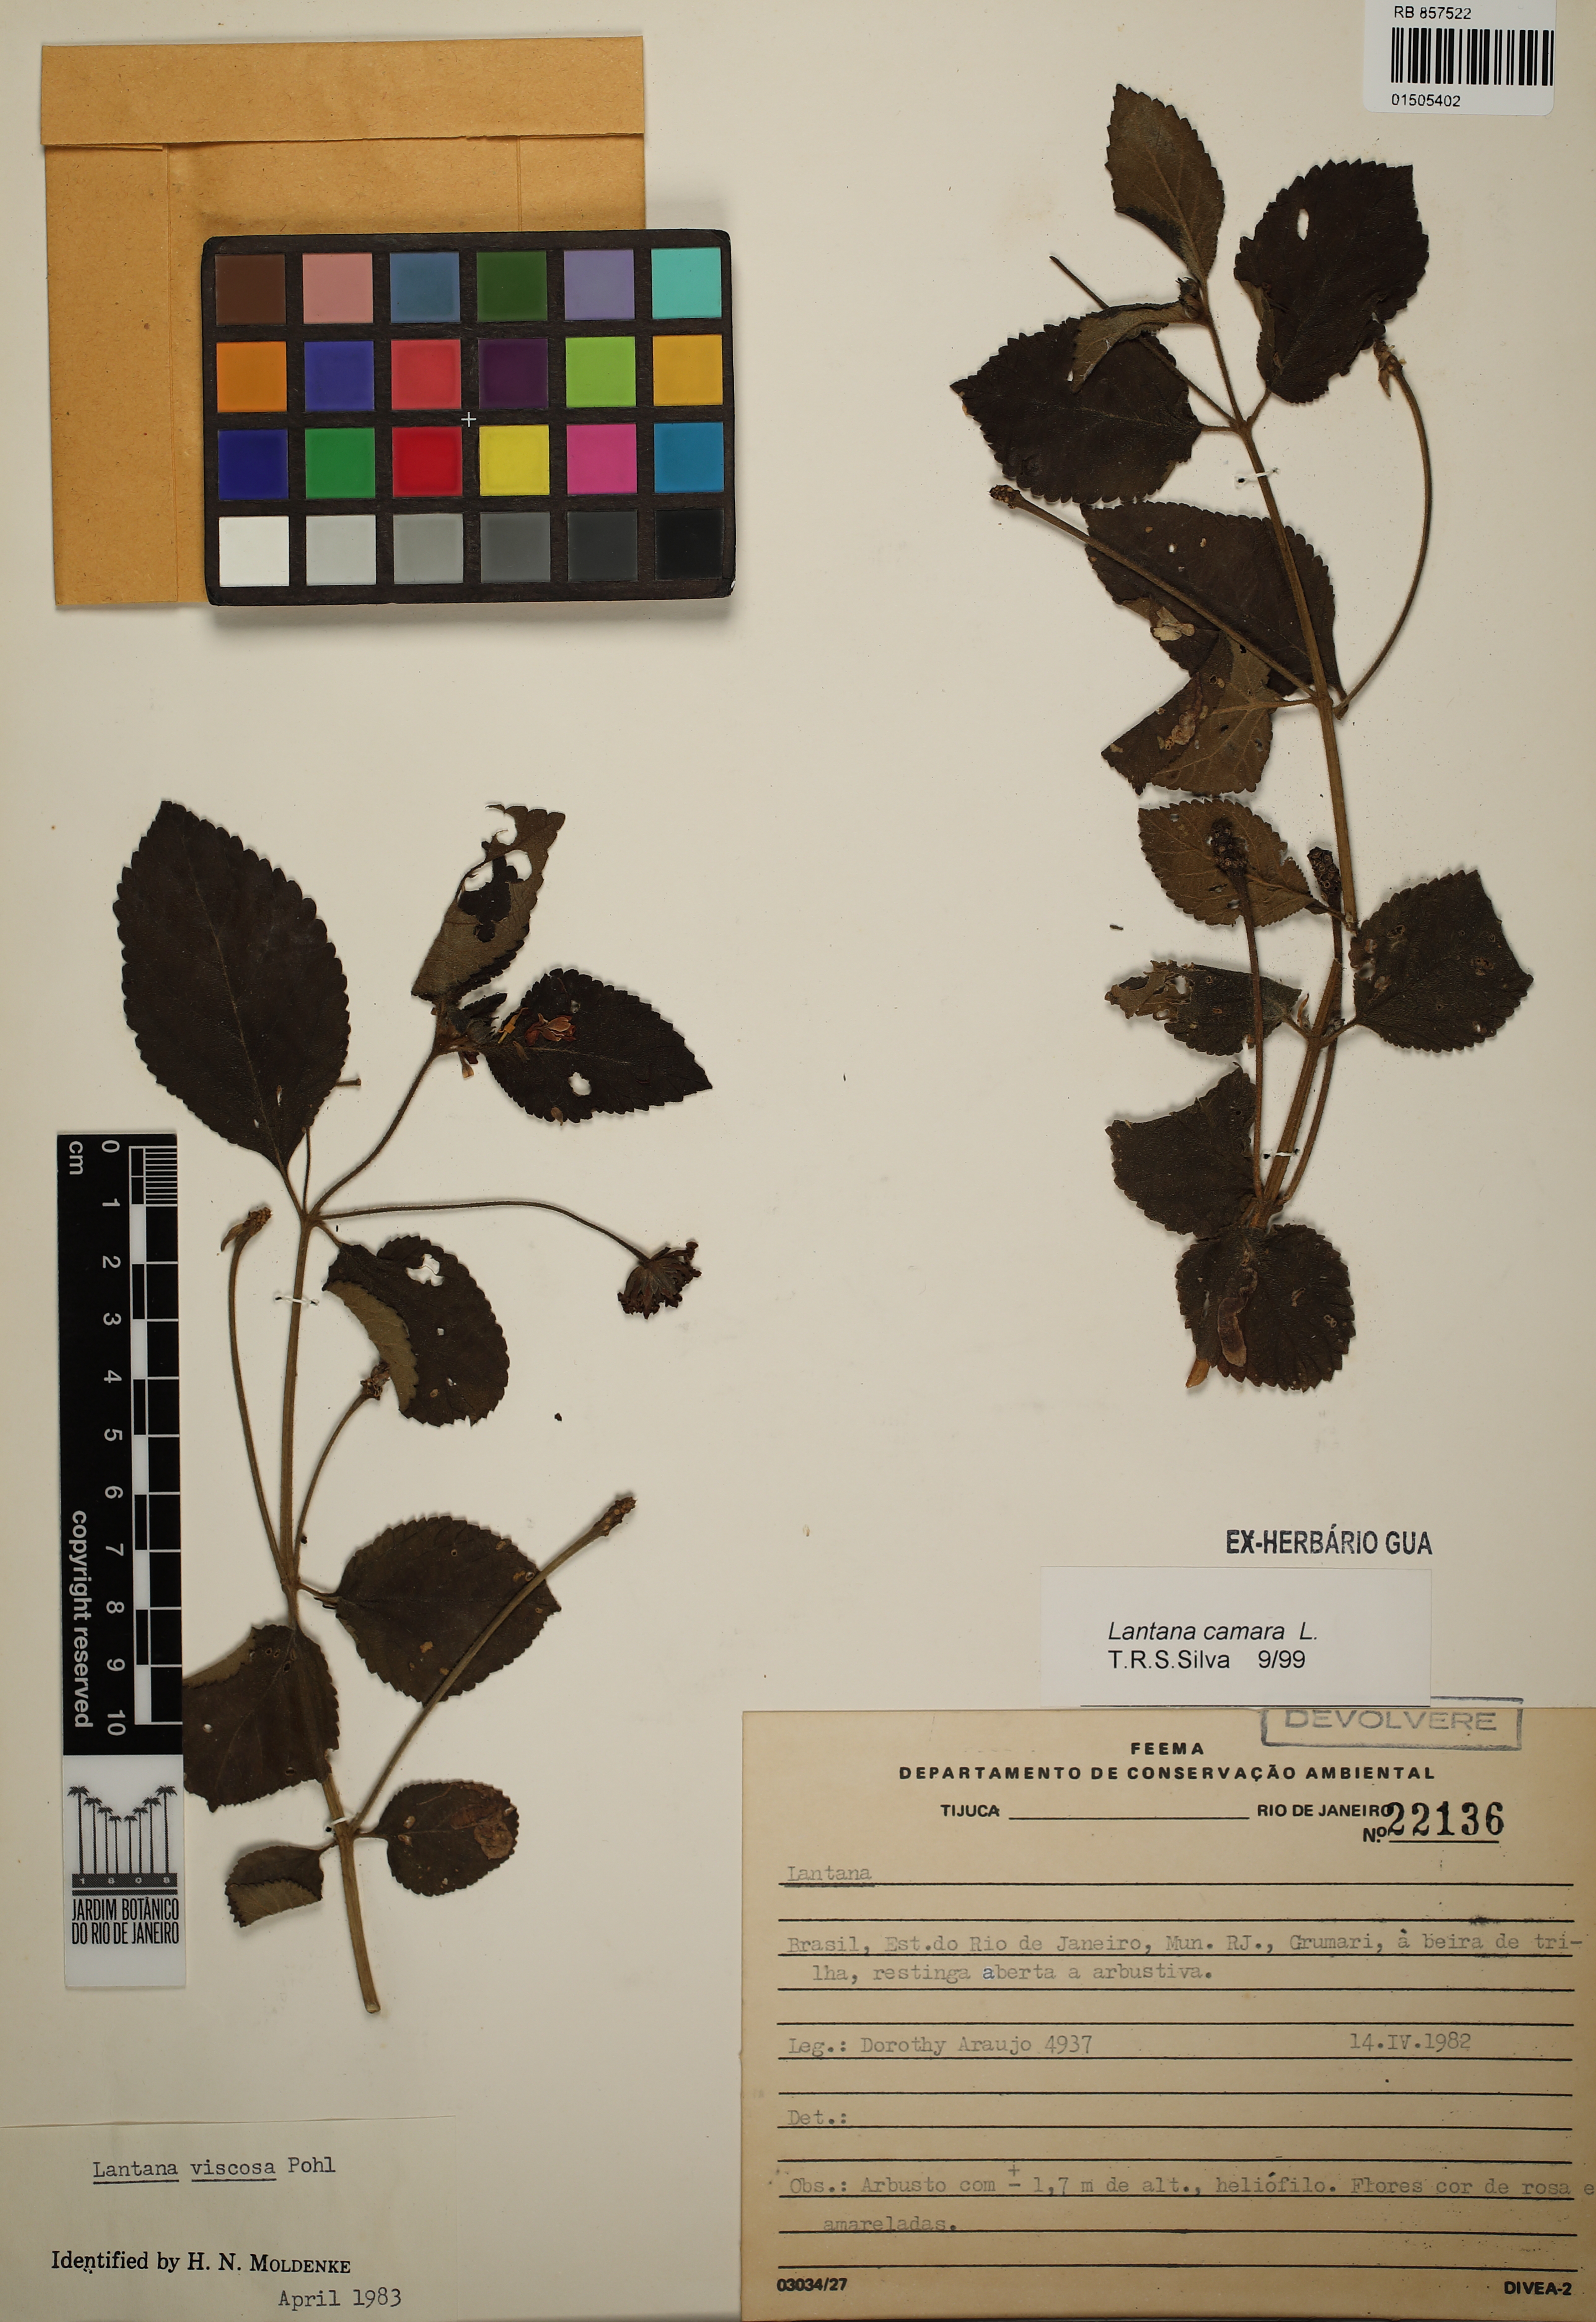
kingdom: Plantae
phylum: Tracheophyta
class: Magnoliopsida
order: Lamiales
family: Verbenaceae
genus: Lantana
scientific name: Lantana camara
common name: Lantana
